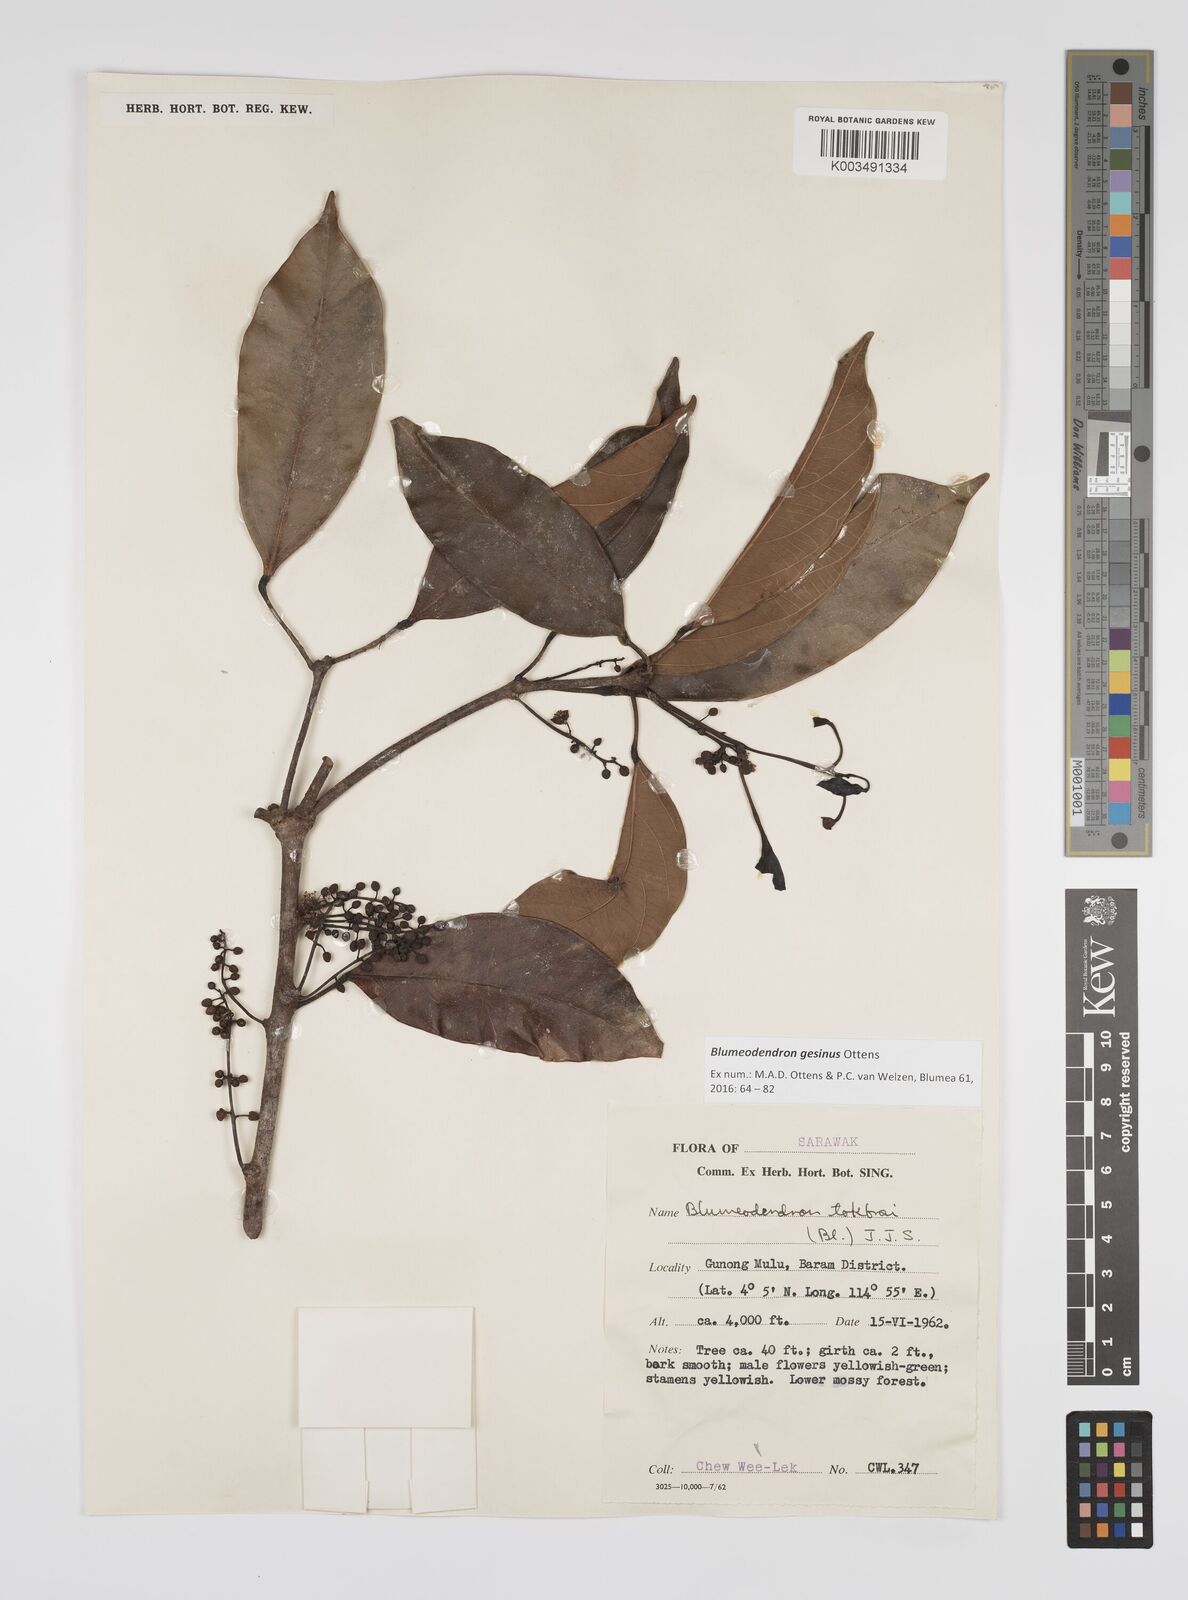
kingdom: Plantae
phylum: Tracheophyta
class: Magnoliopsida
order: Malpighiales
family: Euphorbiaceae
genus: Blumeodendron
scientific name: Blumeodendron gesinus
